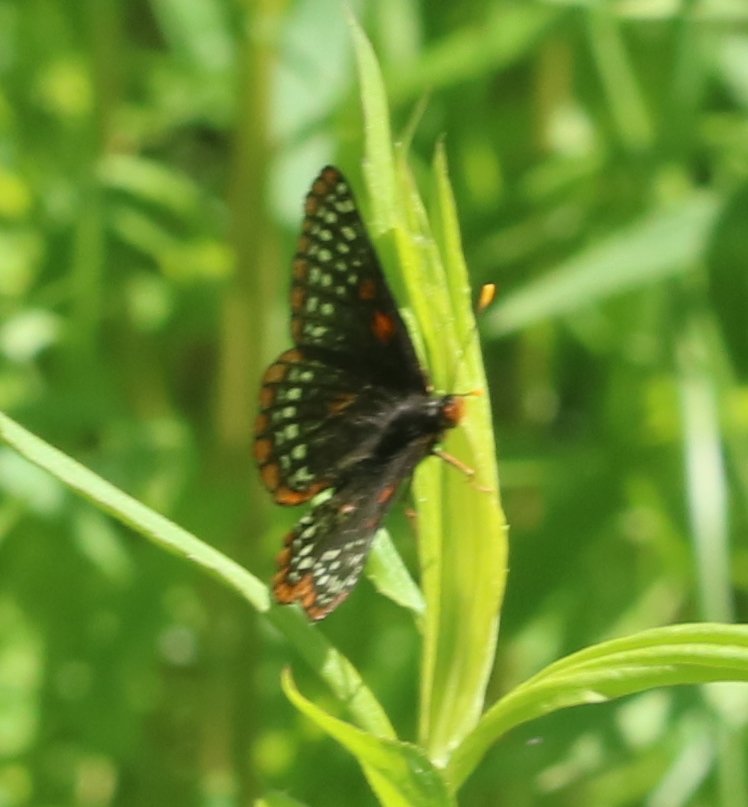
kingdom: Animalia
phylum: Arthropoda
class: Insecta
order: Lepidoptera
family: Nymphalidae
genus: Euphydryas
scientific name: Euphydryas phaeton
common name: Baltimore Checkerspot
